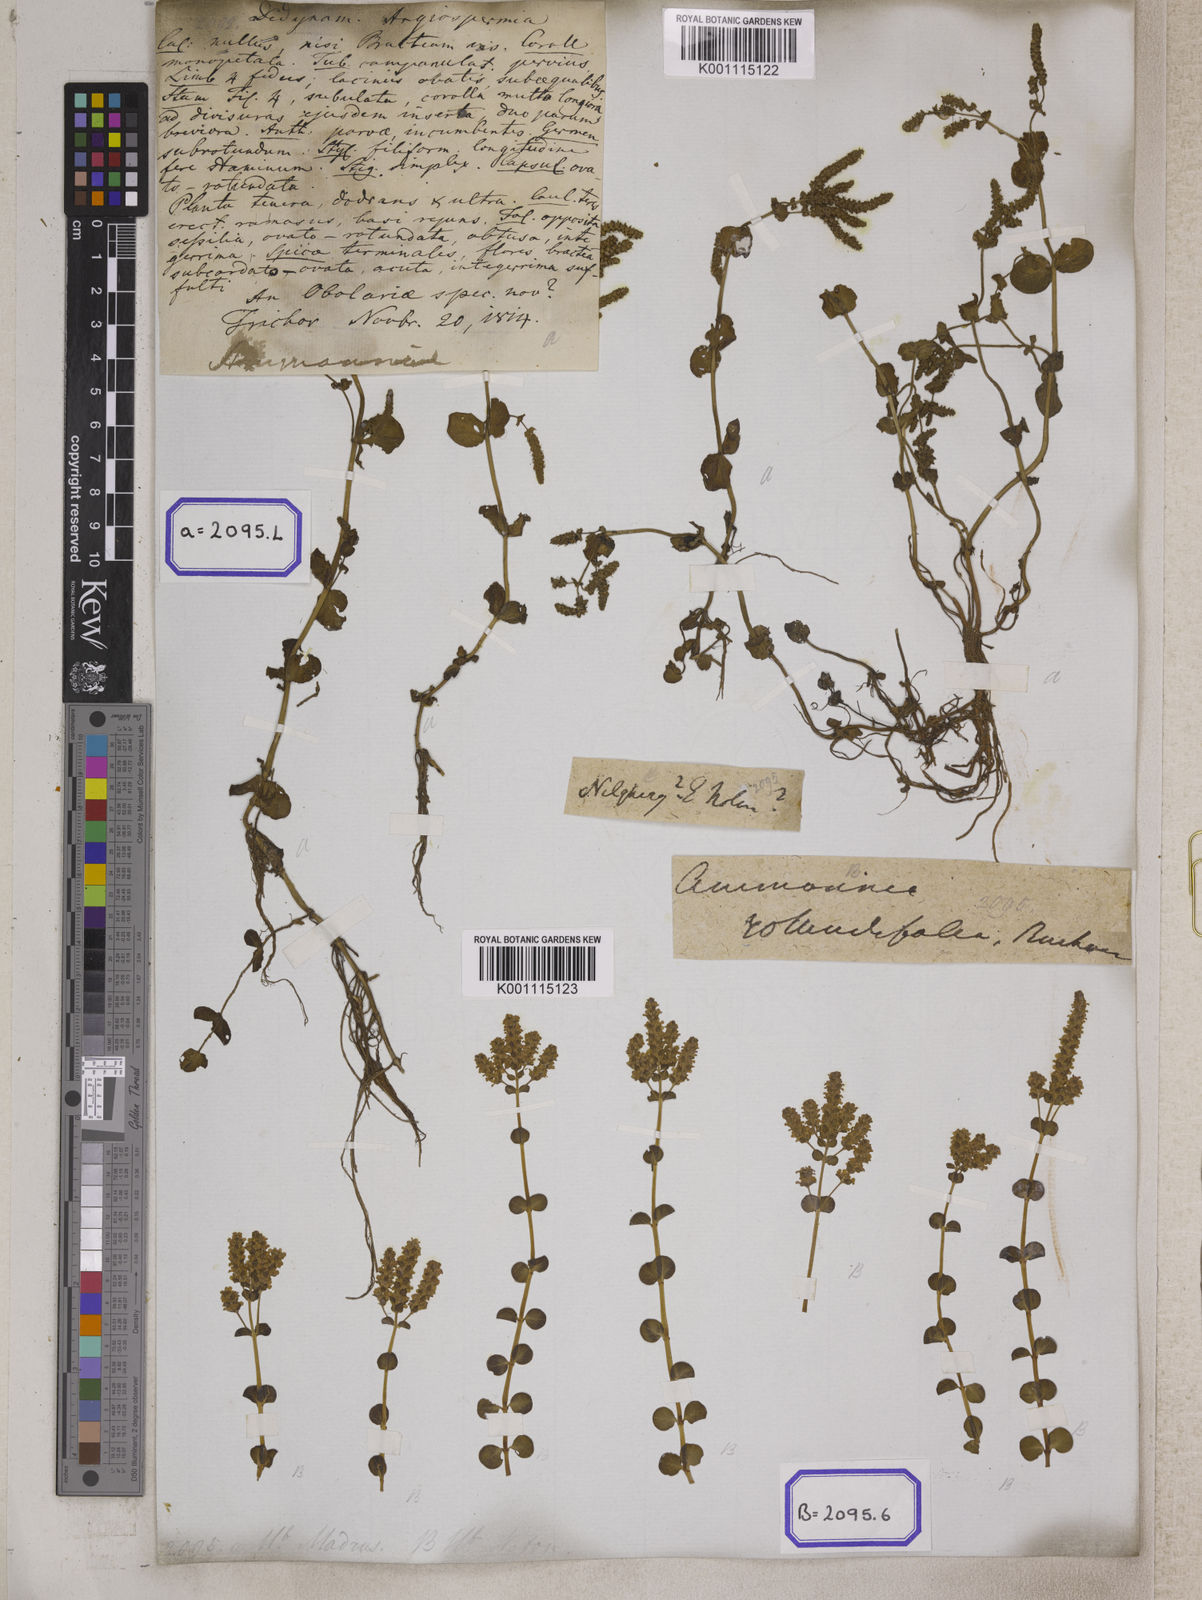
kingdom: Plantae
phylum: Tracheophyta
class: Magnoliopsida
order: Myrtales
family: Lythraceae
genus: Ammannia
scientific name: Ammannia
